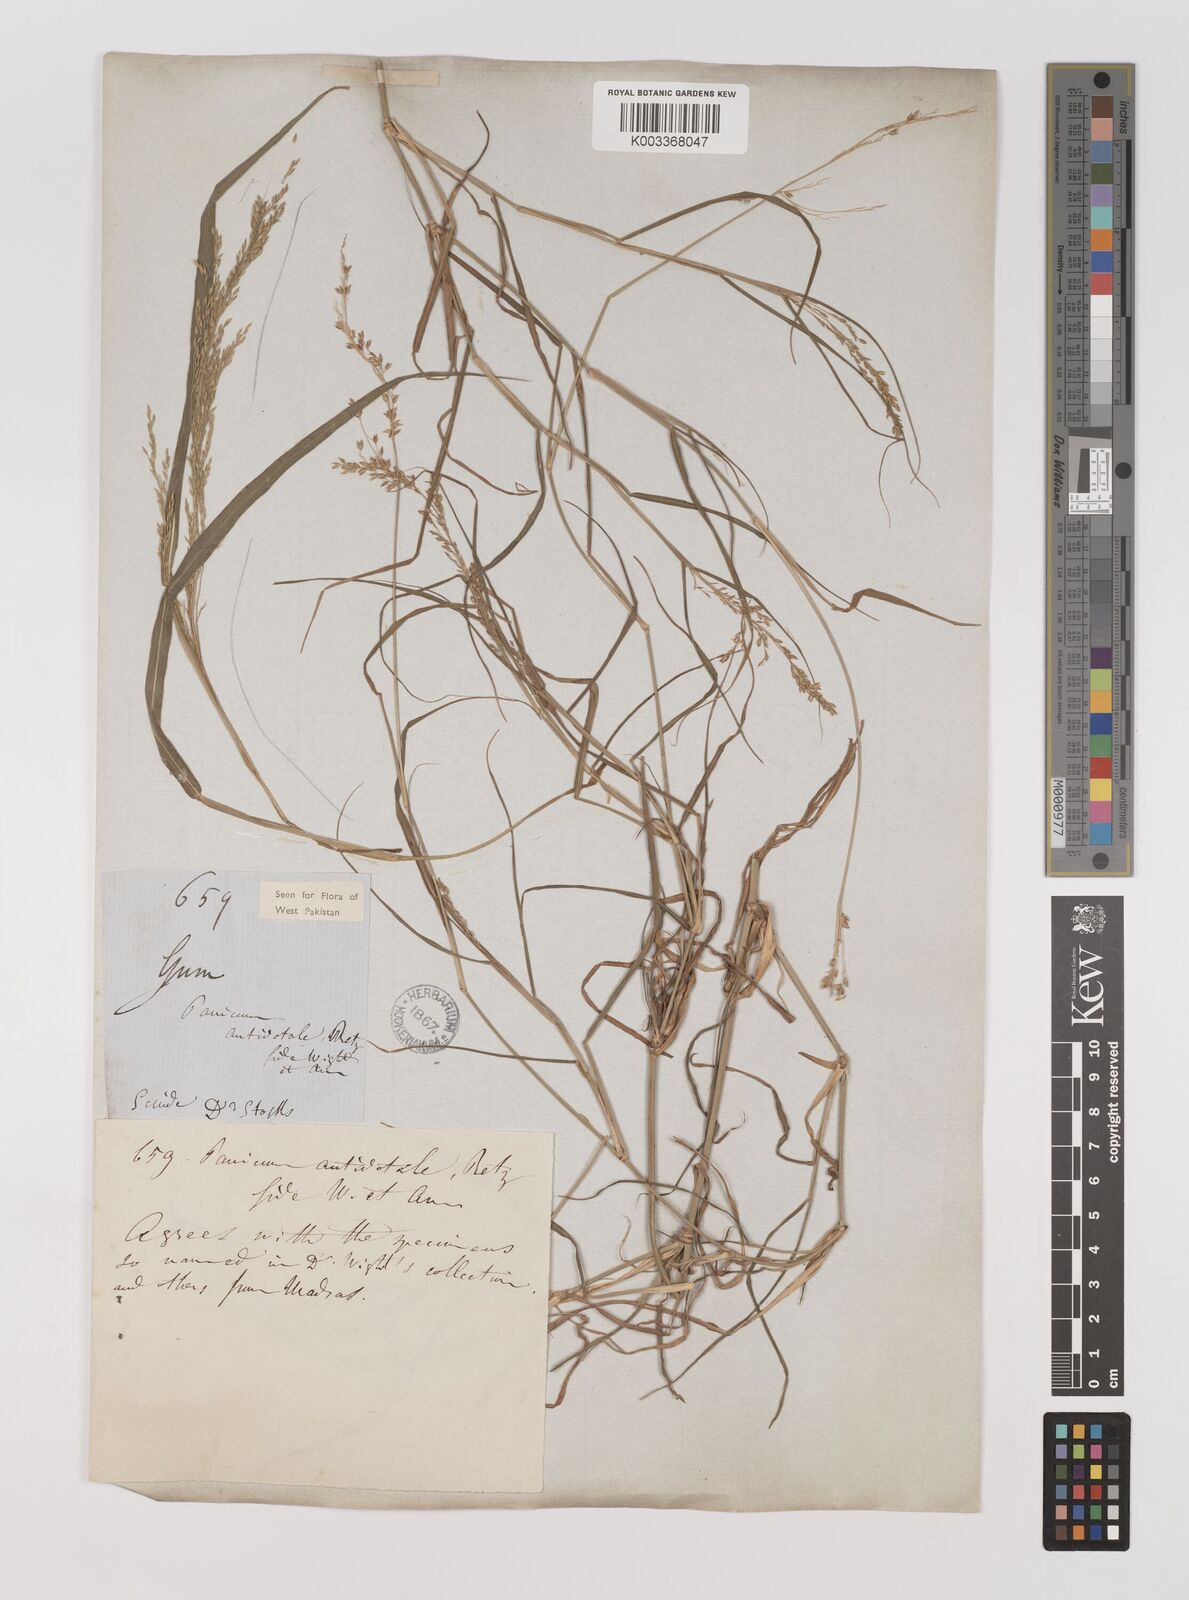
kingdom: Plantae
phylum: Tracheophyta
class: Liliopsida
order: Poales
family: Poaceae
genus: Panicum
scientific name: Panicum antidotale
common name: Blue panicum
